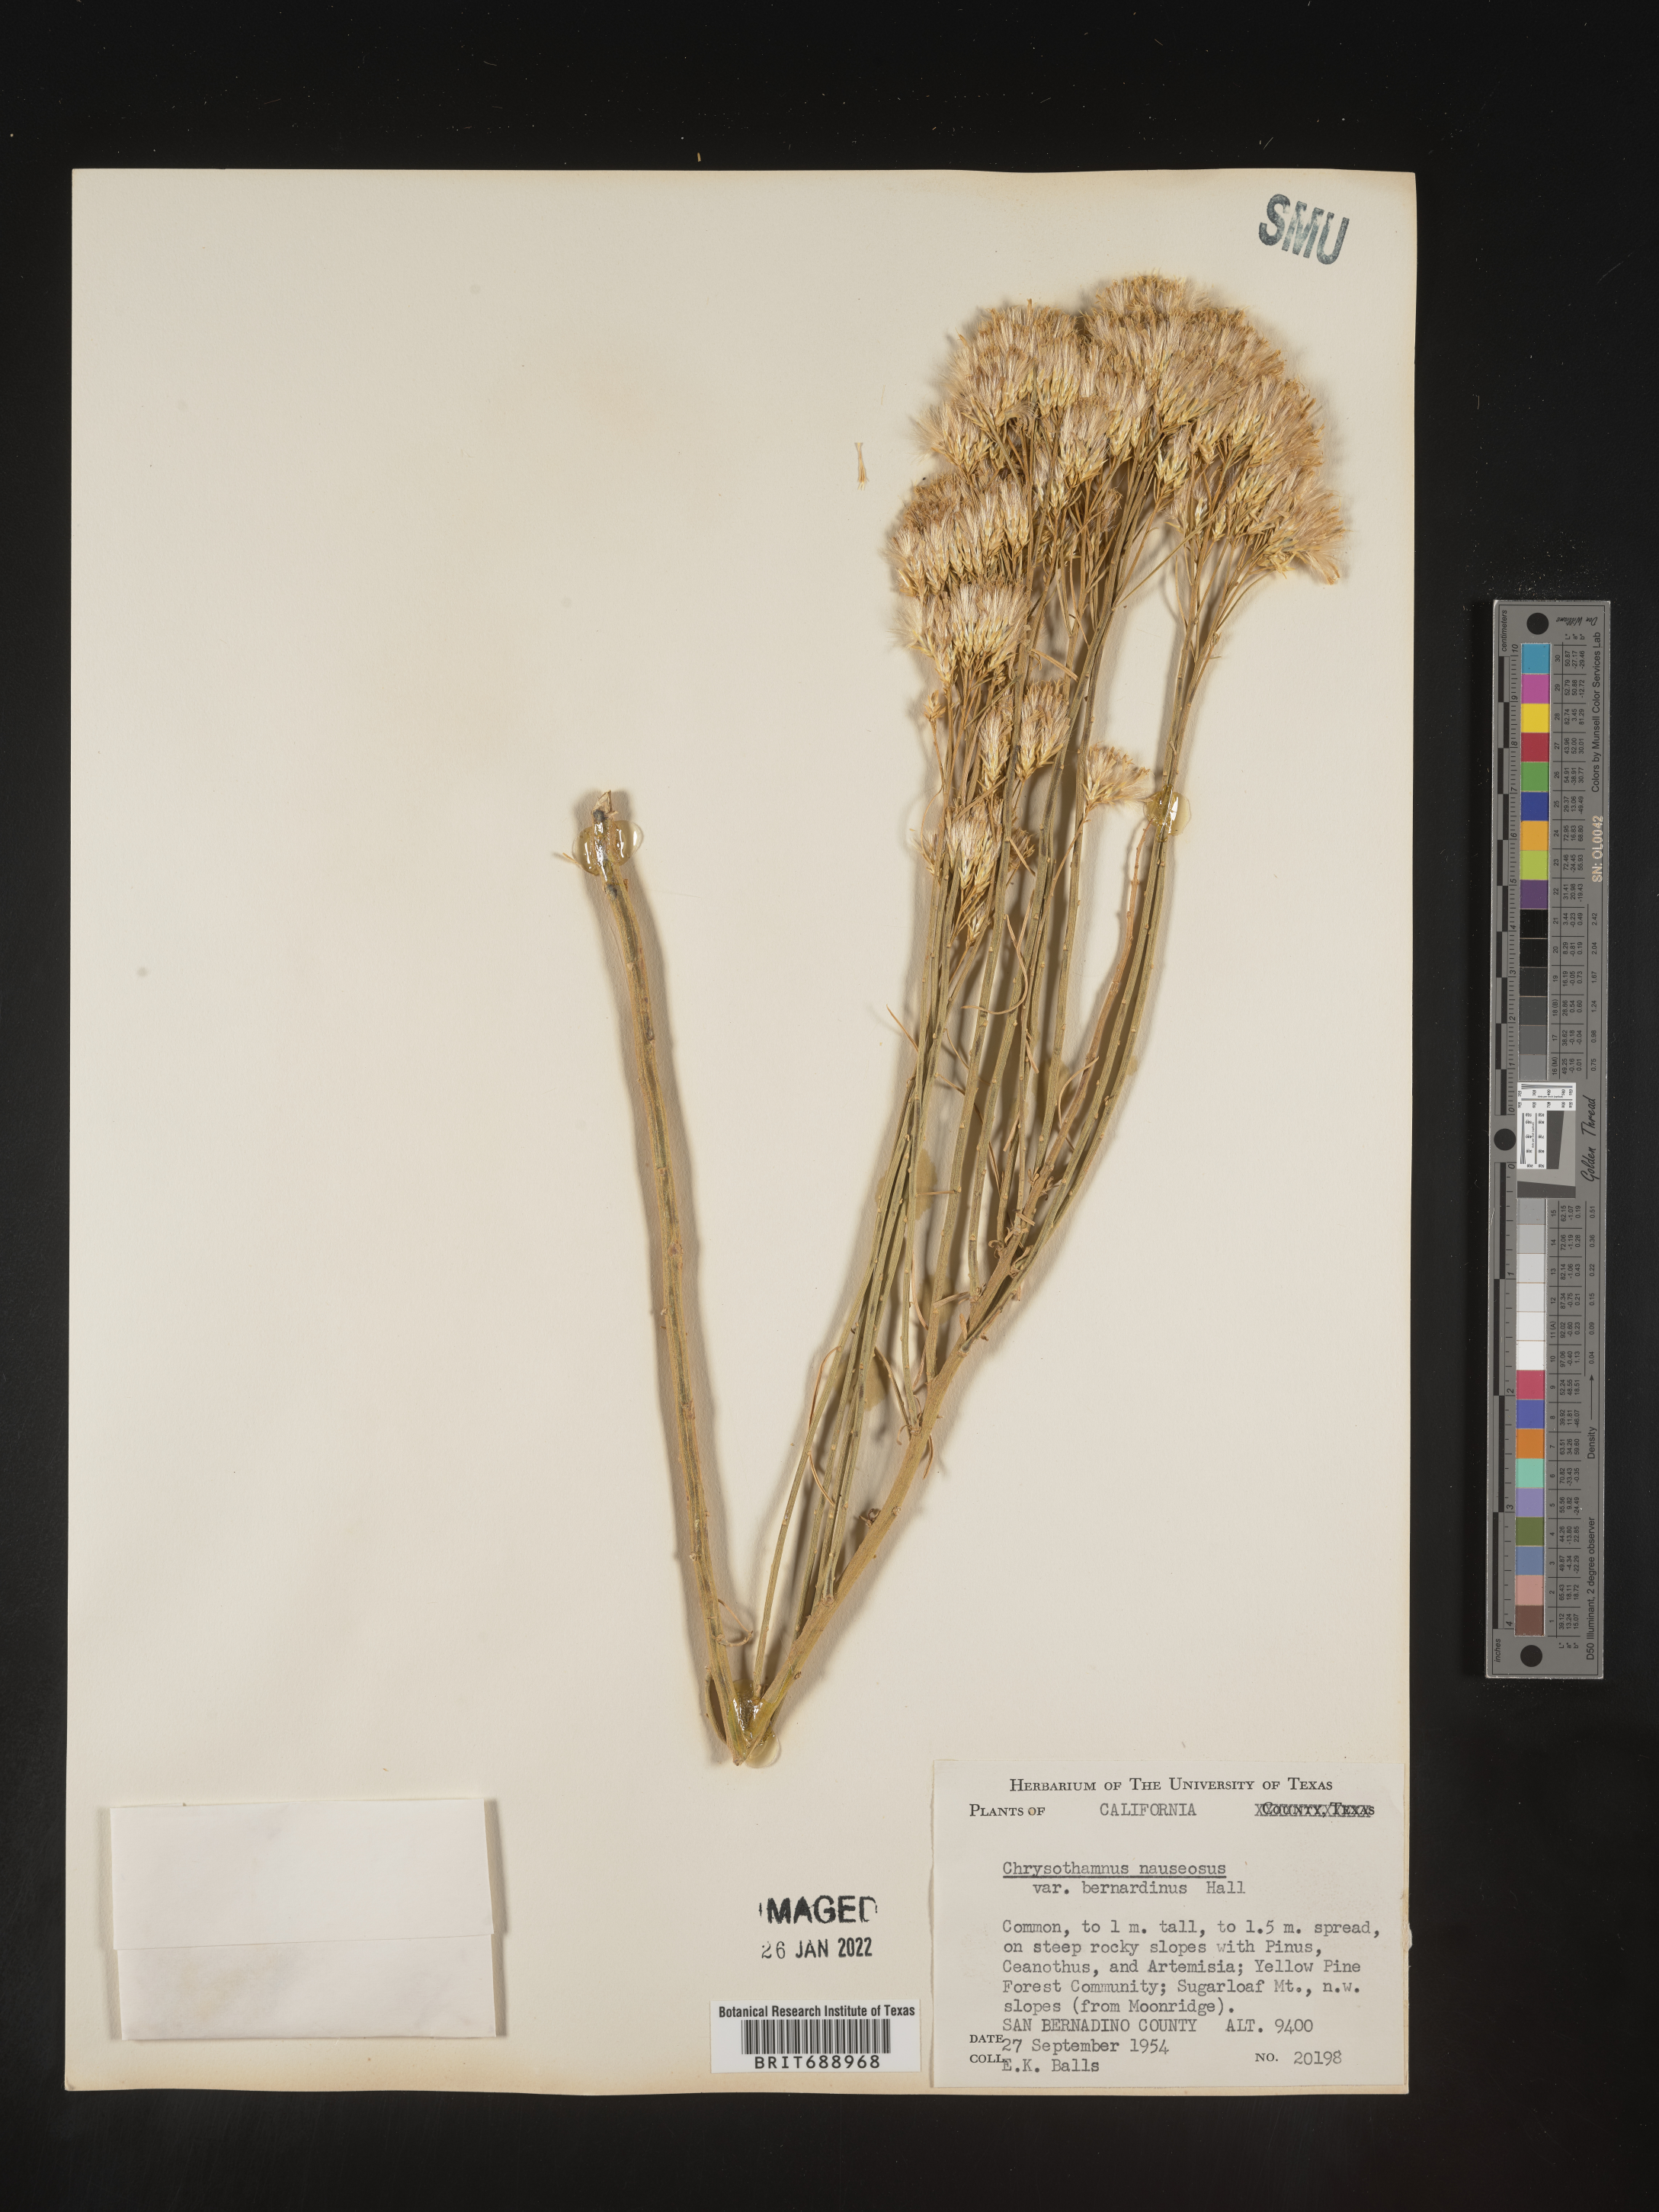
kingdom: Plantae
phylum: Tracheophyta
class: Magnoliopsida
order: Asterales
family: Asteraceae
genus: Ericameria
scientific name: Ericameria nauseosa
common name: Rubber rabbitbrush
